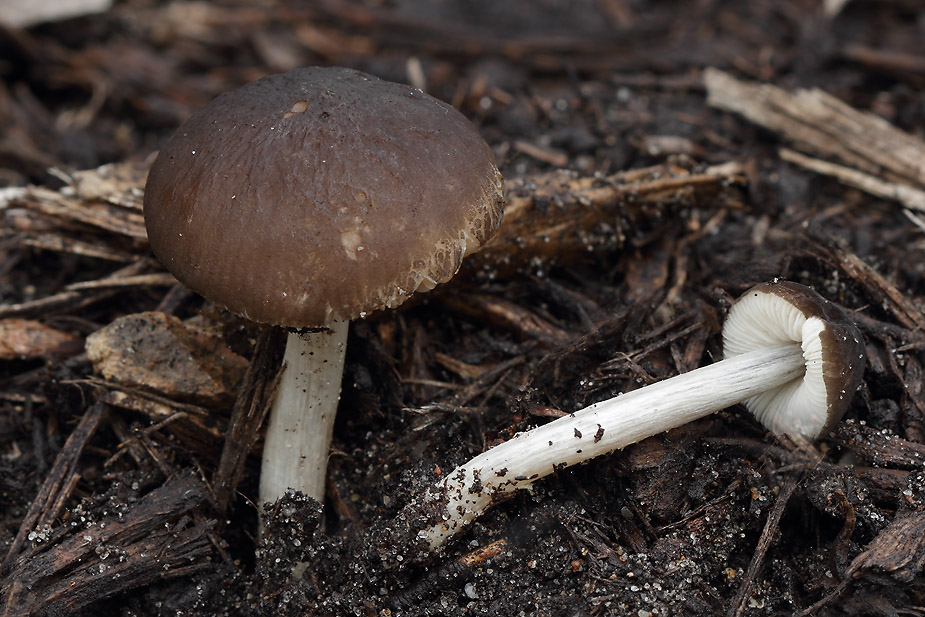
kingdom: Fungi
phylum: Basidiomycota
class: Agaricomycetes
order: Agaricales
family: Pluteaceae
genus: Pluteus
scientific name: Pluteus
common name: pudret skærmhat
